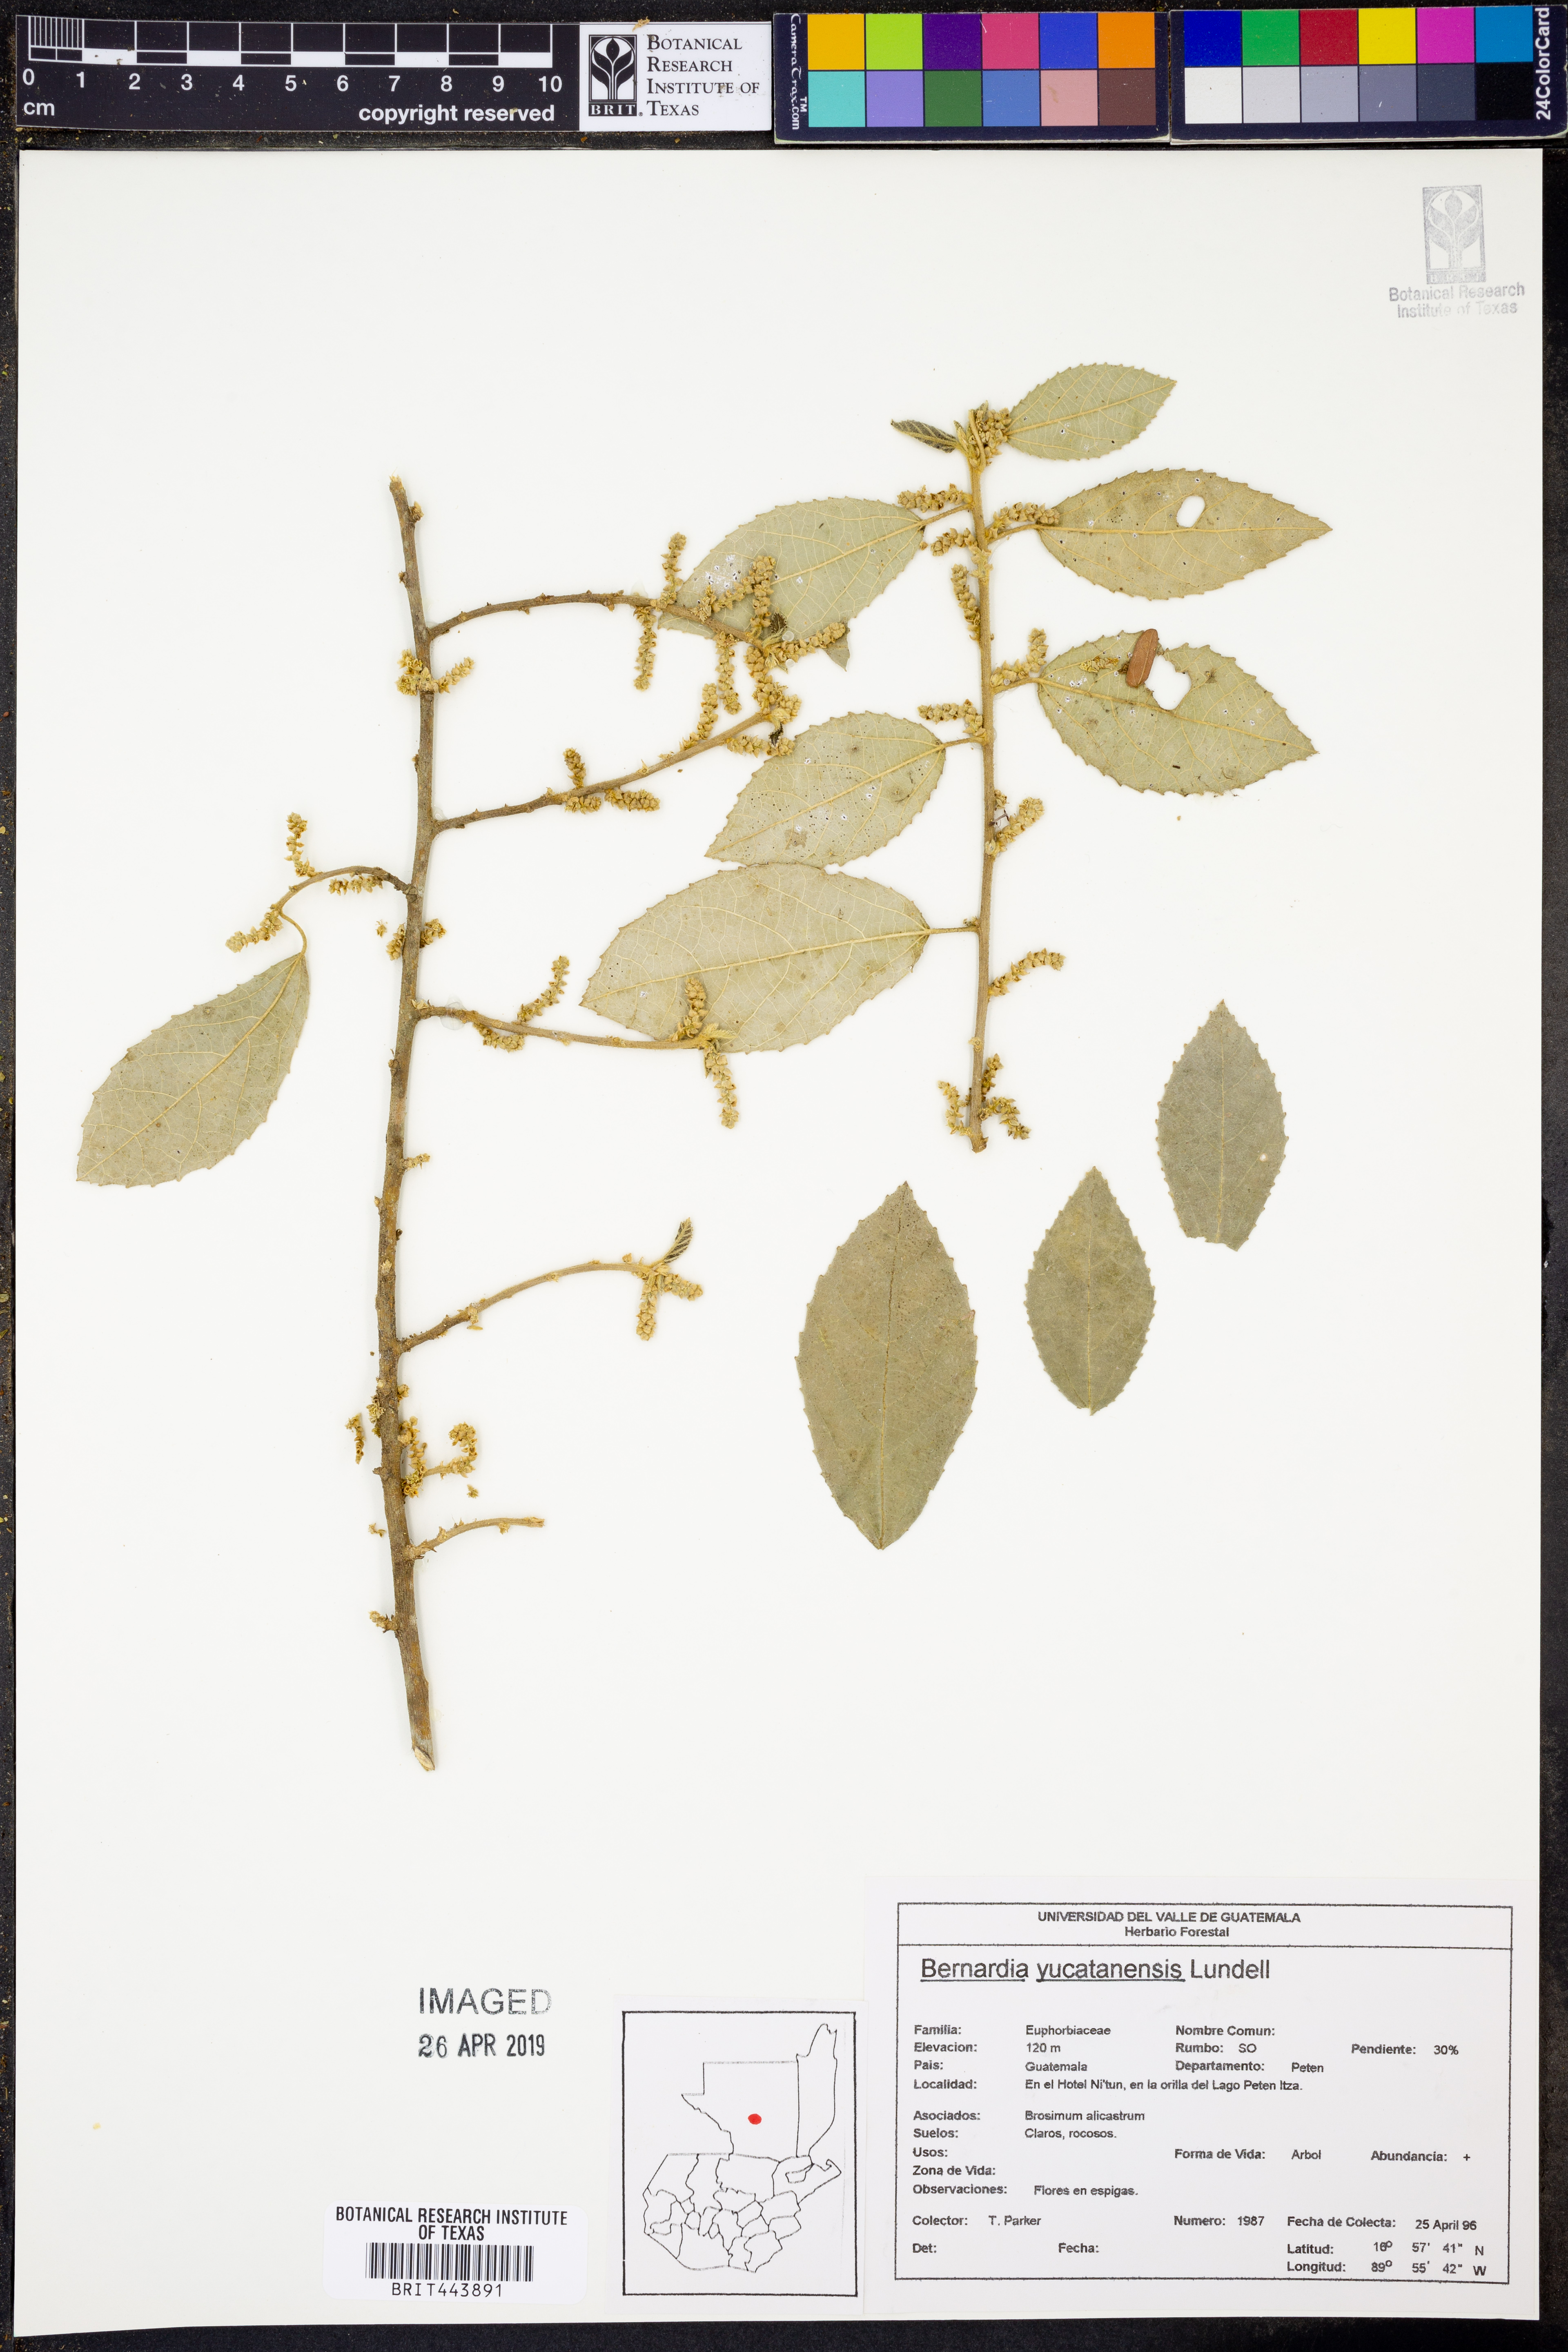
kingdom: Plantae
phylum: Tracheophyta
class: Magnoliopsida
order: Malpighiales
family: Euphorbiaceae
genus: Bernardia
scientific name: Bernardia yucatanensis
